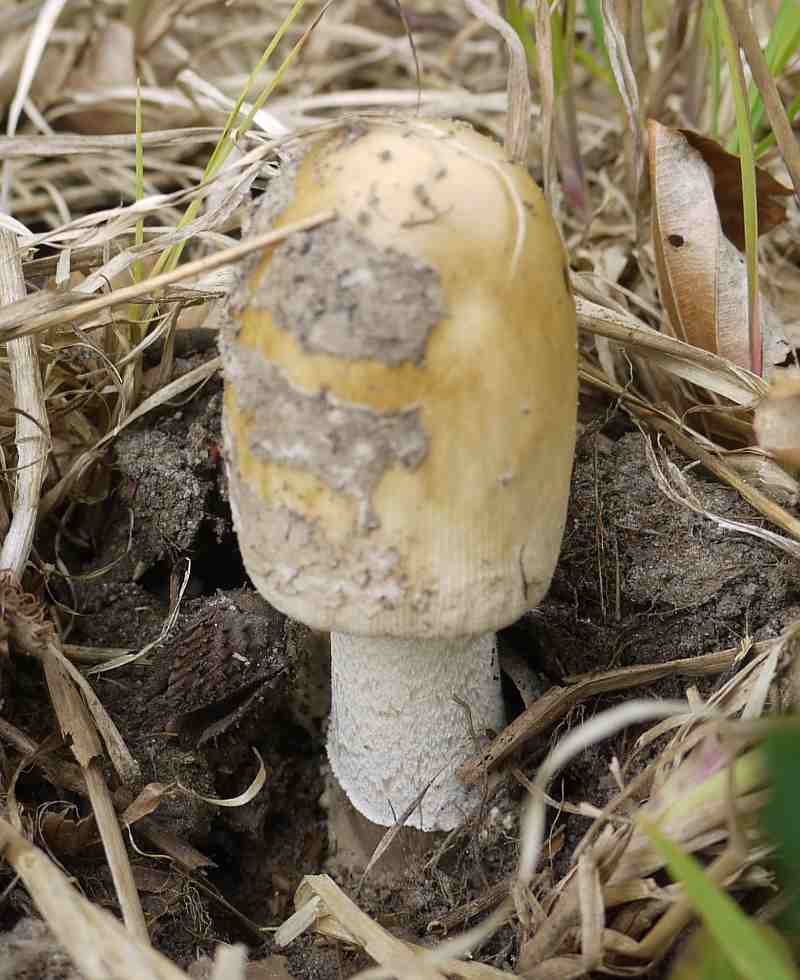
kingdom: Fungi
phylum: Basidiomycota
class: Agaricomycetes
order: Agaricales
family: Amanitaceae
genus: Amanita
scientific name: Amanita ceciliae
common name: stor kam-fluesvamp
